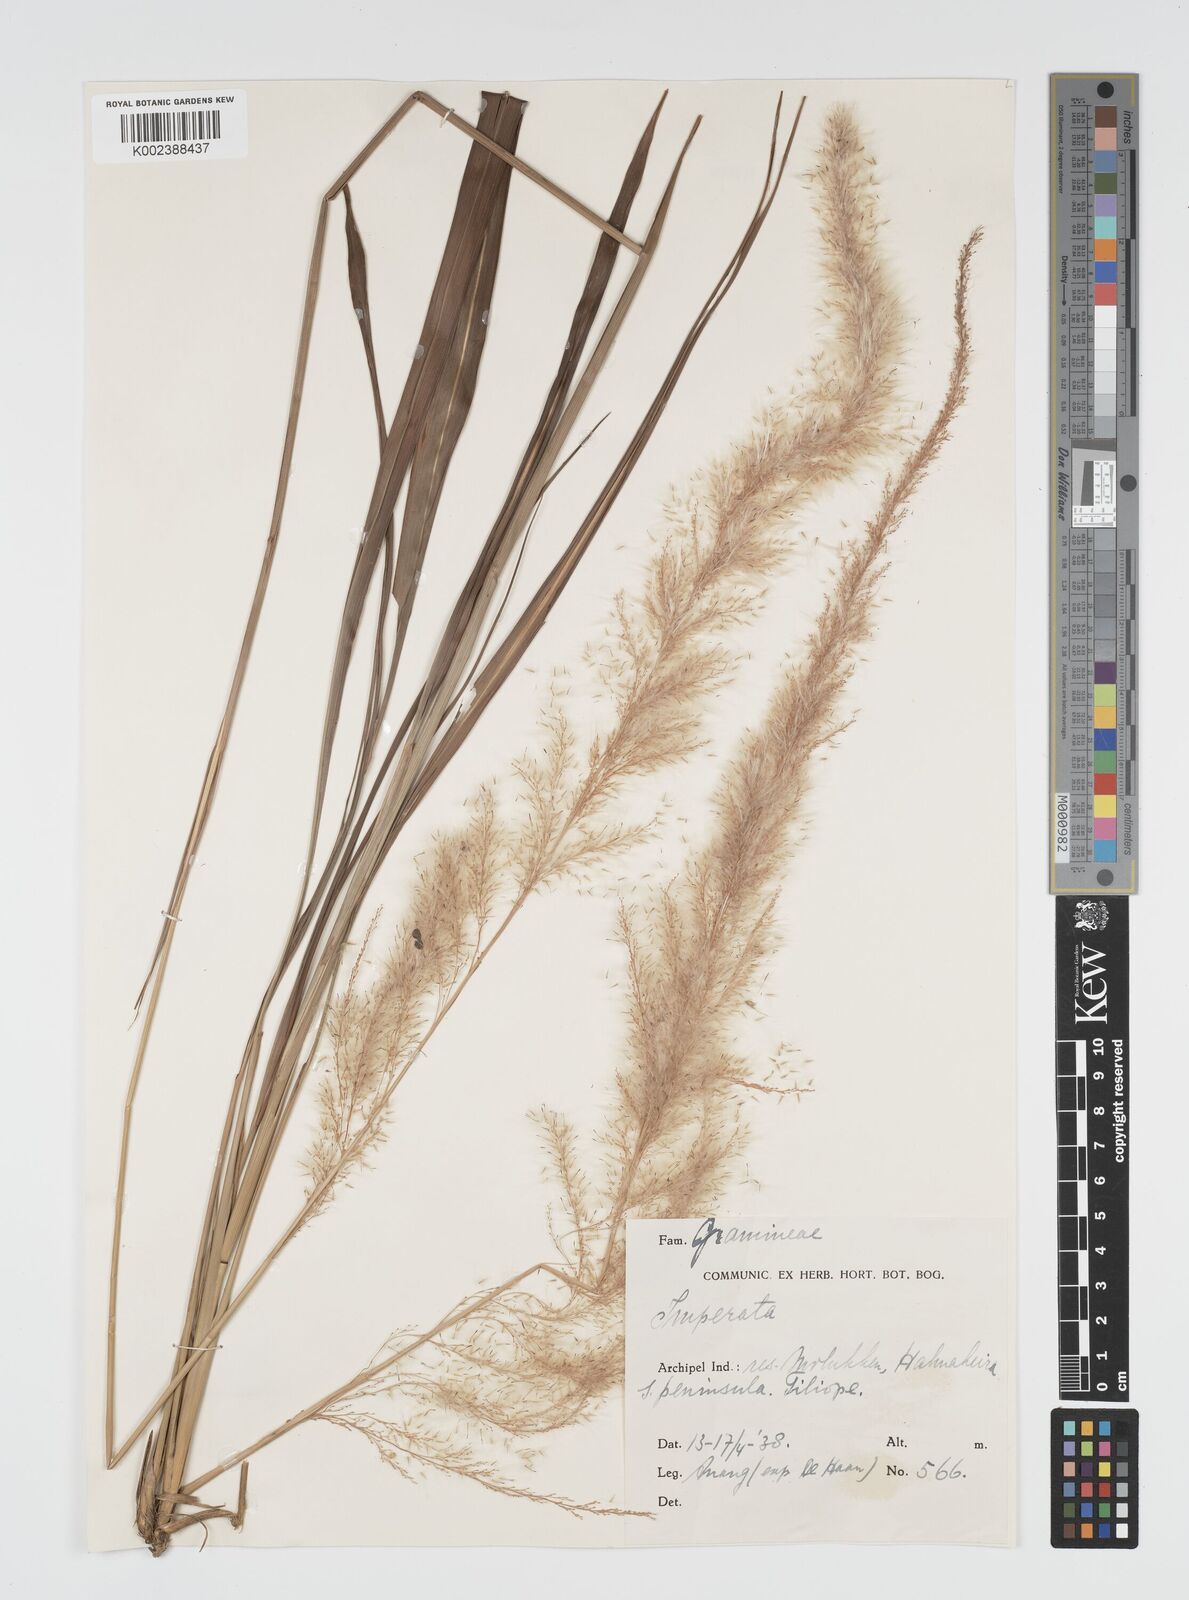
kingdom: Plantae
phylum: Tracheophyta
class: Liliopsida
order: Poales
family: Poaceae
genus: Imperata
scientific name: Imperata conferta
